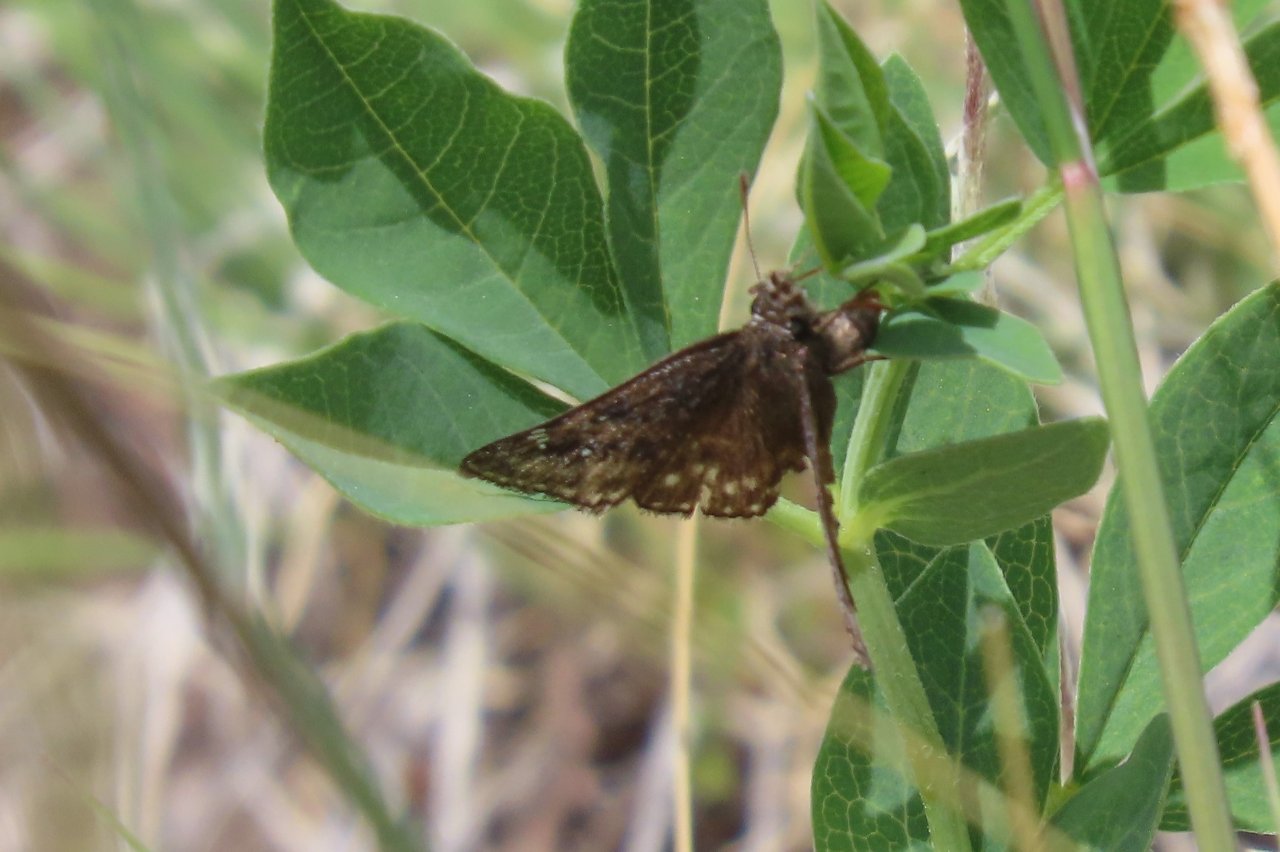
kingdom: Animalia
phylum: Arthropoda
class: Insecta
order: Lepidoptera
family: Hesperiidae
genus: Gesta
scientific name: Gesta
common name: Persius Duskywing
